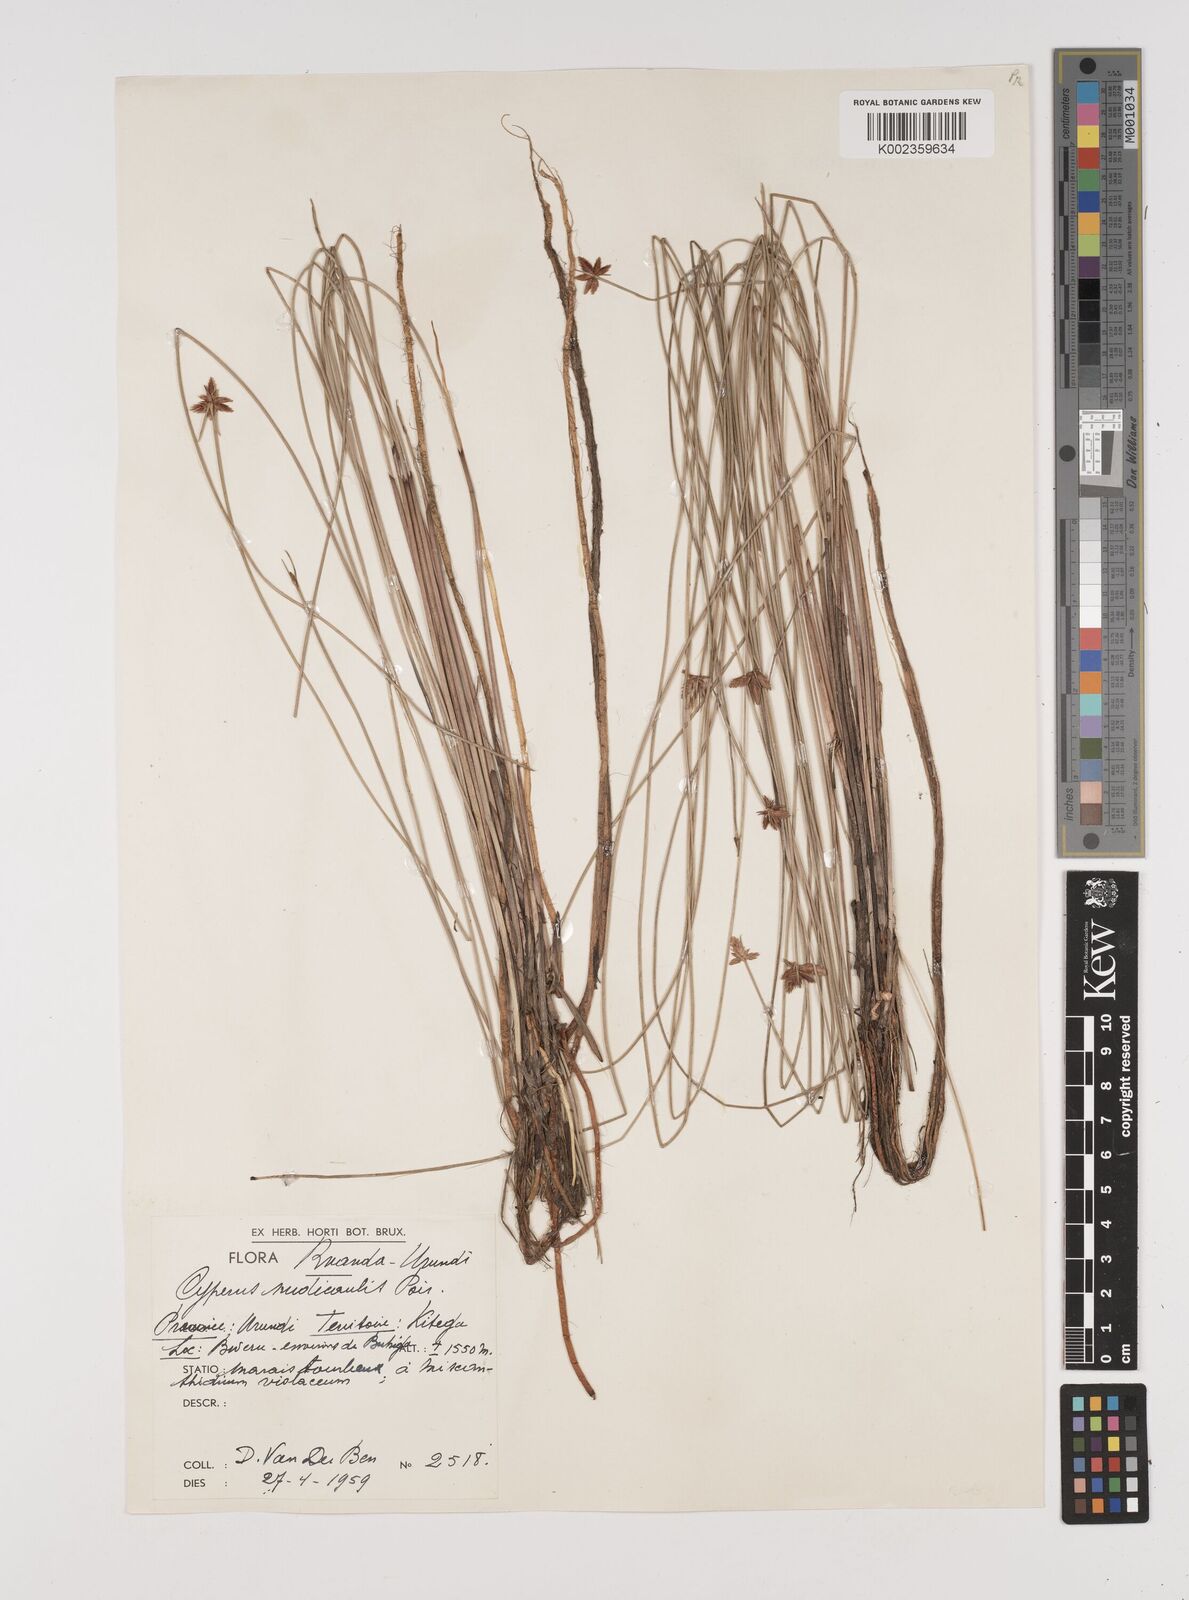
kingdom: Plantae
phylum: Tracheophyta
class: Liliopsida
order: Poales
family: Cyperaceae
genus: Cyperus
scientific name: Cyperus pectinatus
